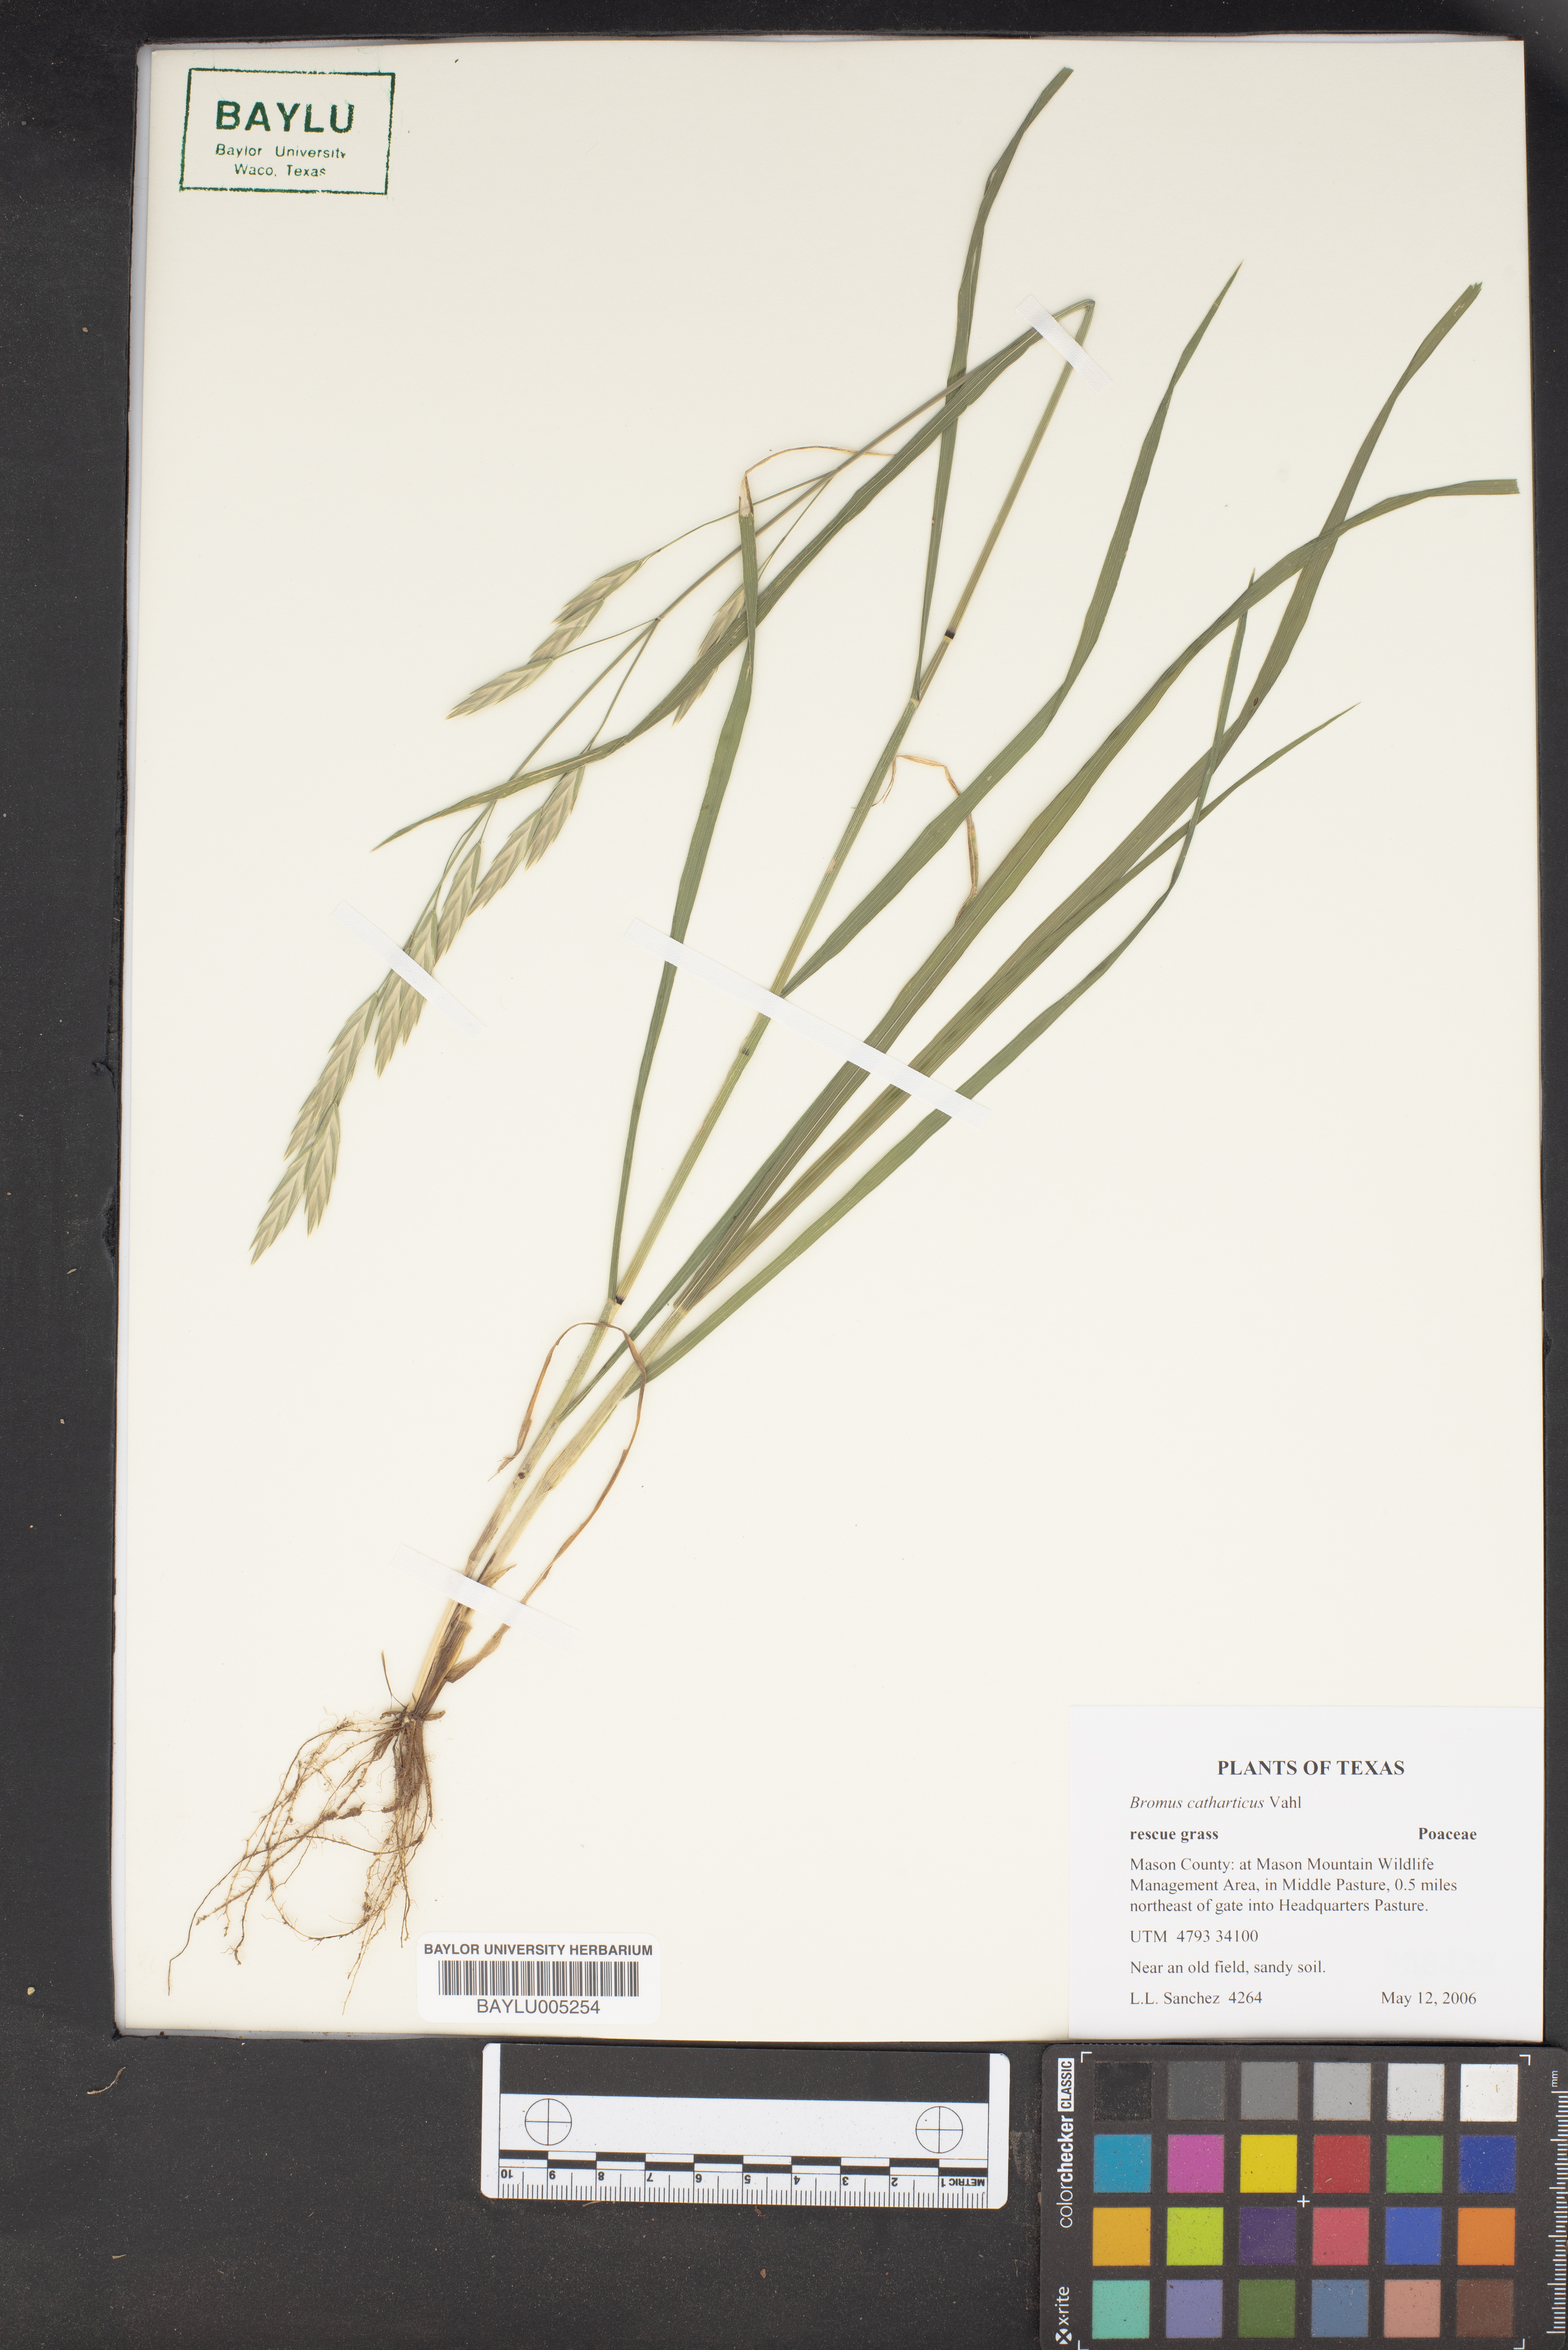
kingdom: Plantae
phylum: Tracheophyta
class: Liliopsida
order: Poales
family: Poaceae
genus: Bromus
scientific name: Bromus catharticus
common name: Rescuegrass
